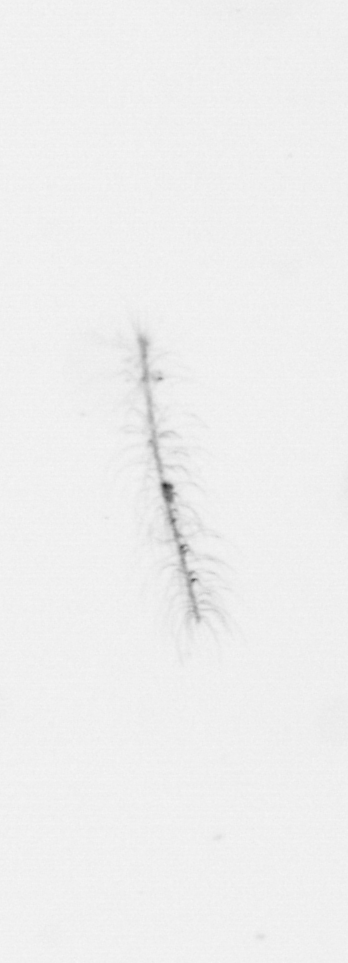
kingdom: Chromista
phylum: Ochrophyta
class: Bacillariophyceae
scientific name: Bacillariophyceae
